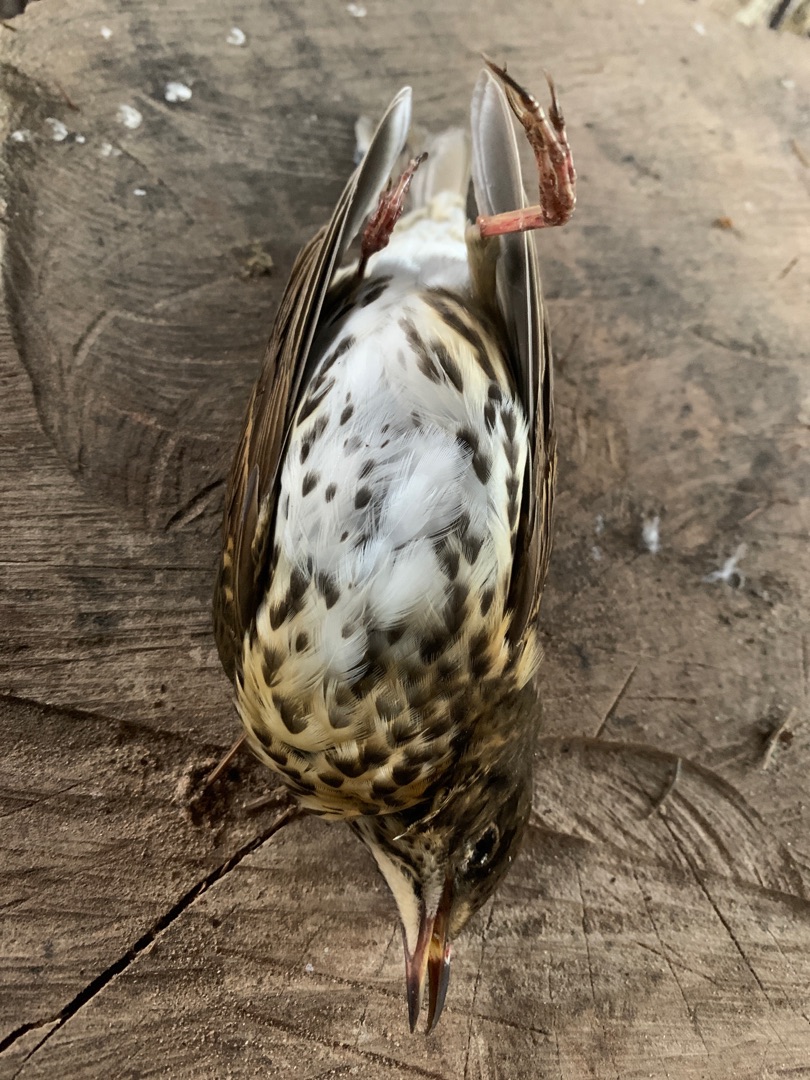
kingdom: Animalia
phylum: Chordata
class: Aves
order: Passeriformes
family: Turdidae
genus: Turdus
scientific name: Turdus philomelos
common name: Sangdrossel
